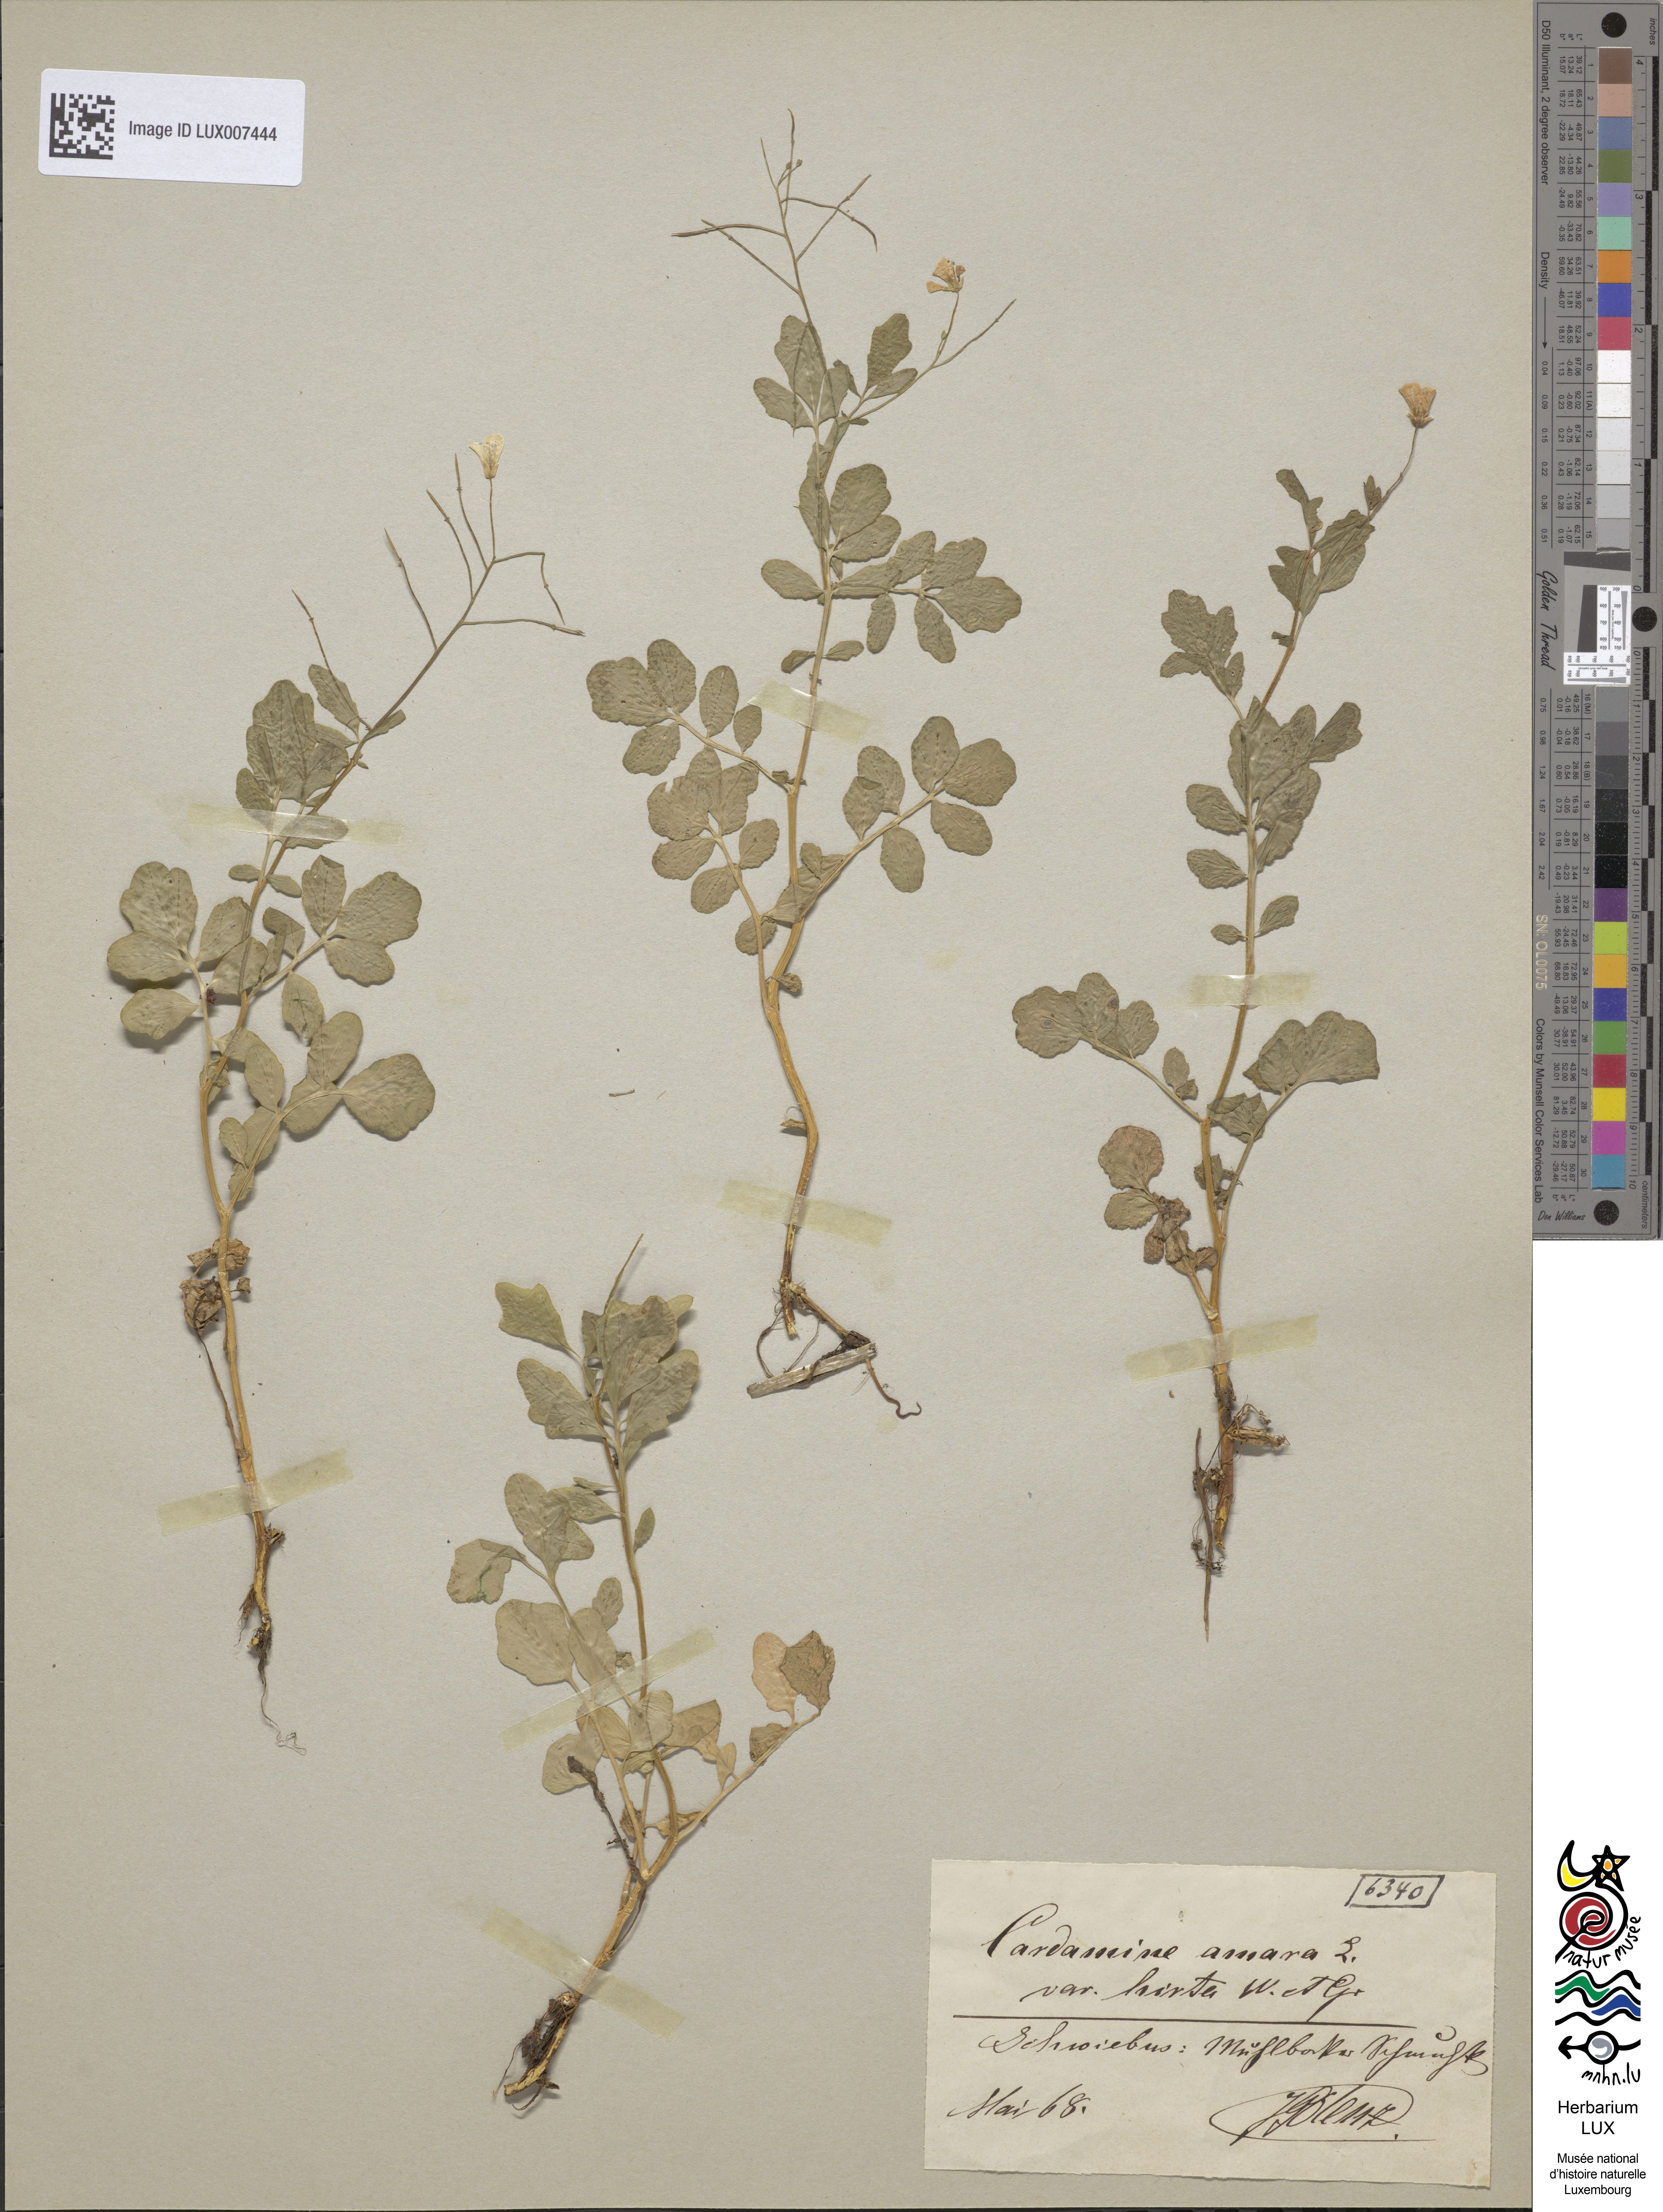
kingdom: Plantae
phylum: Tracheophyta
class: Magnoliopsida
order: Brassicales
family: Brassicaceae
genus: Cardamine
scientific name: Cardamine amara
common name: Large bitter-cress
